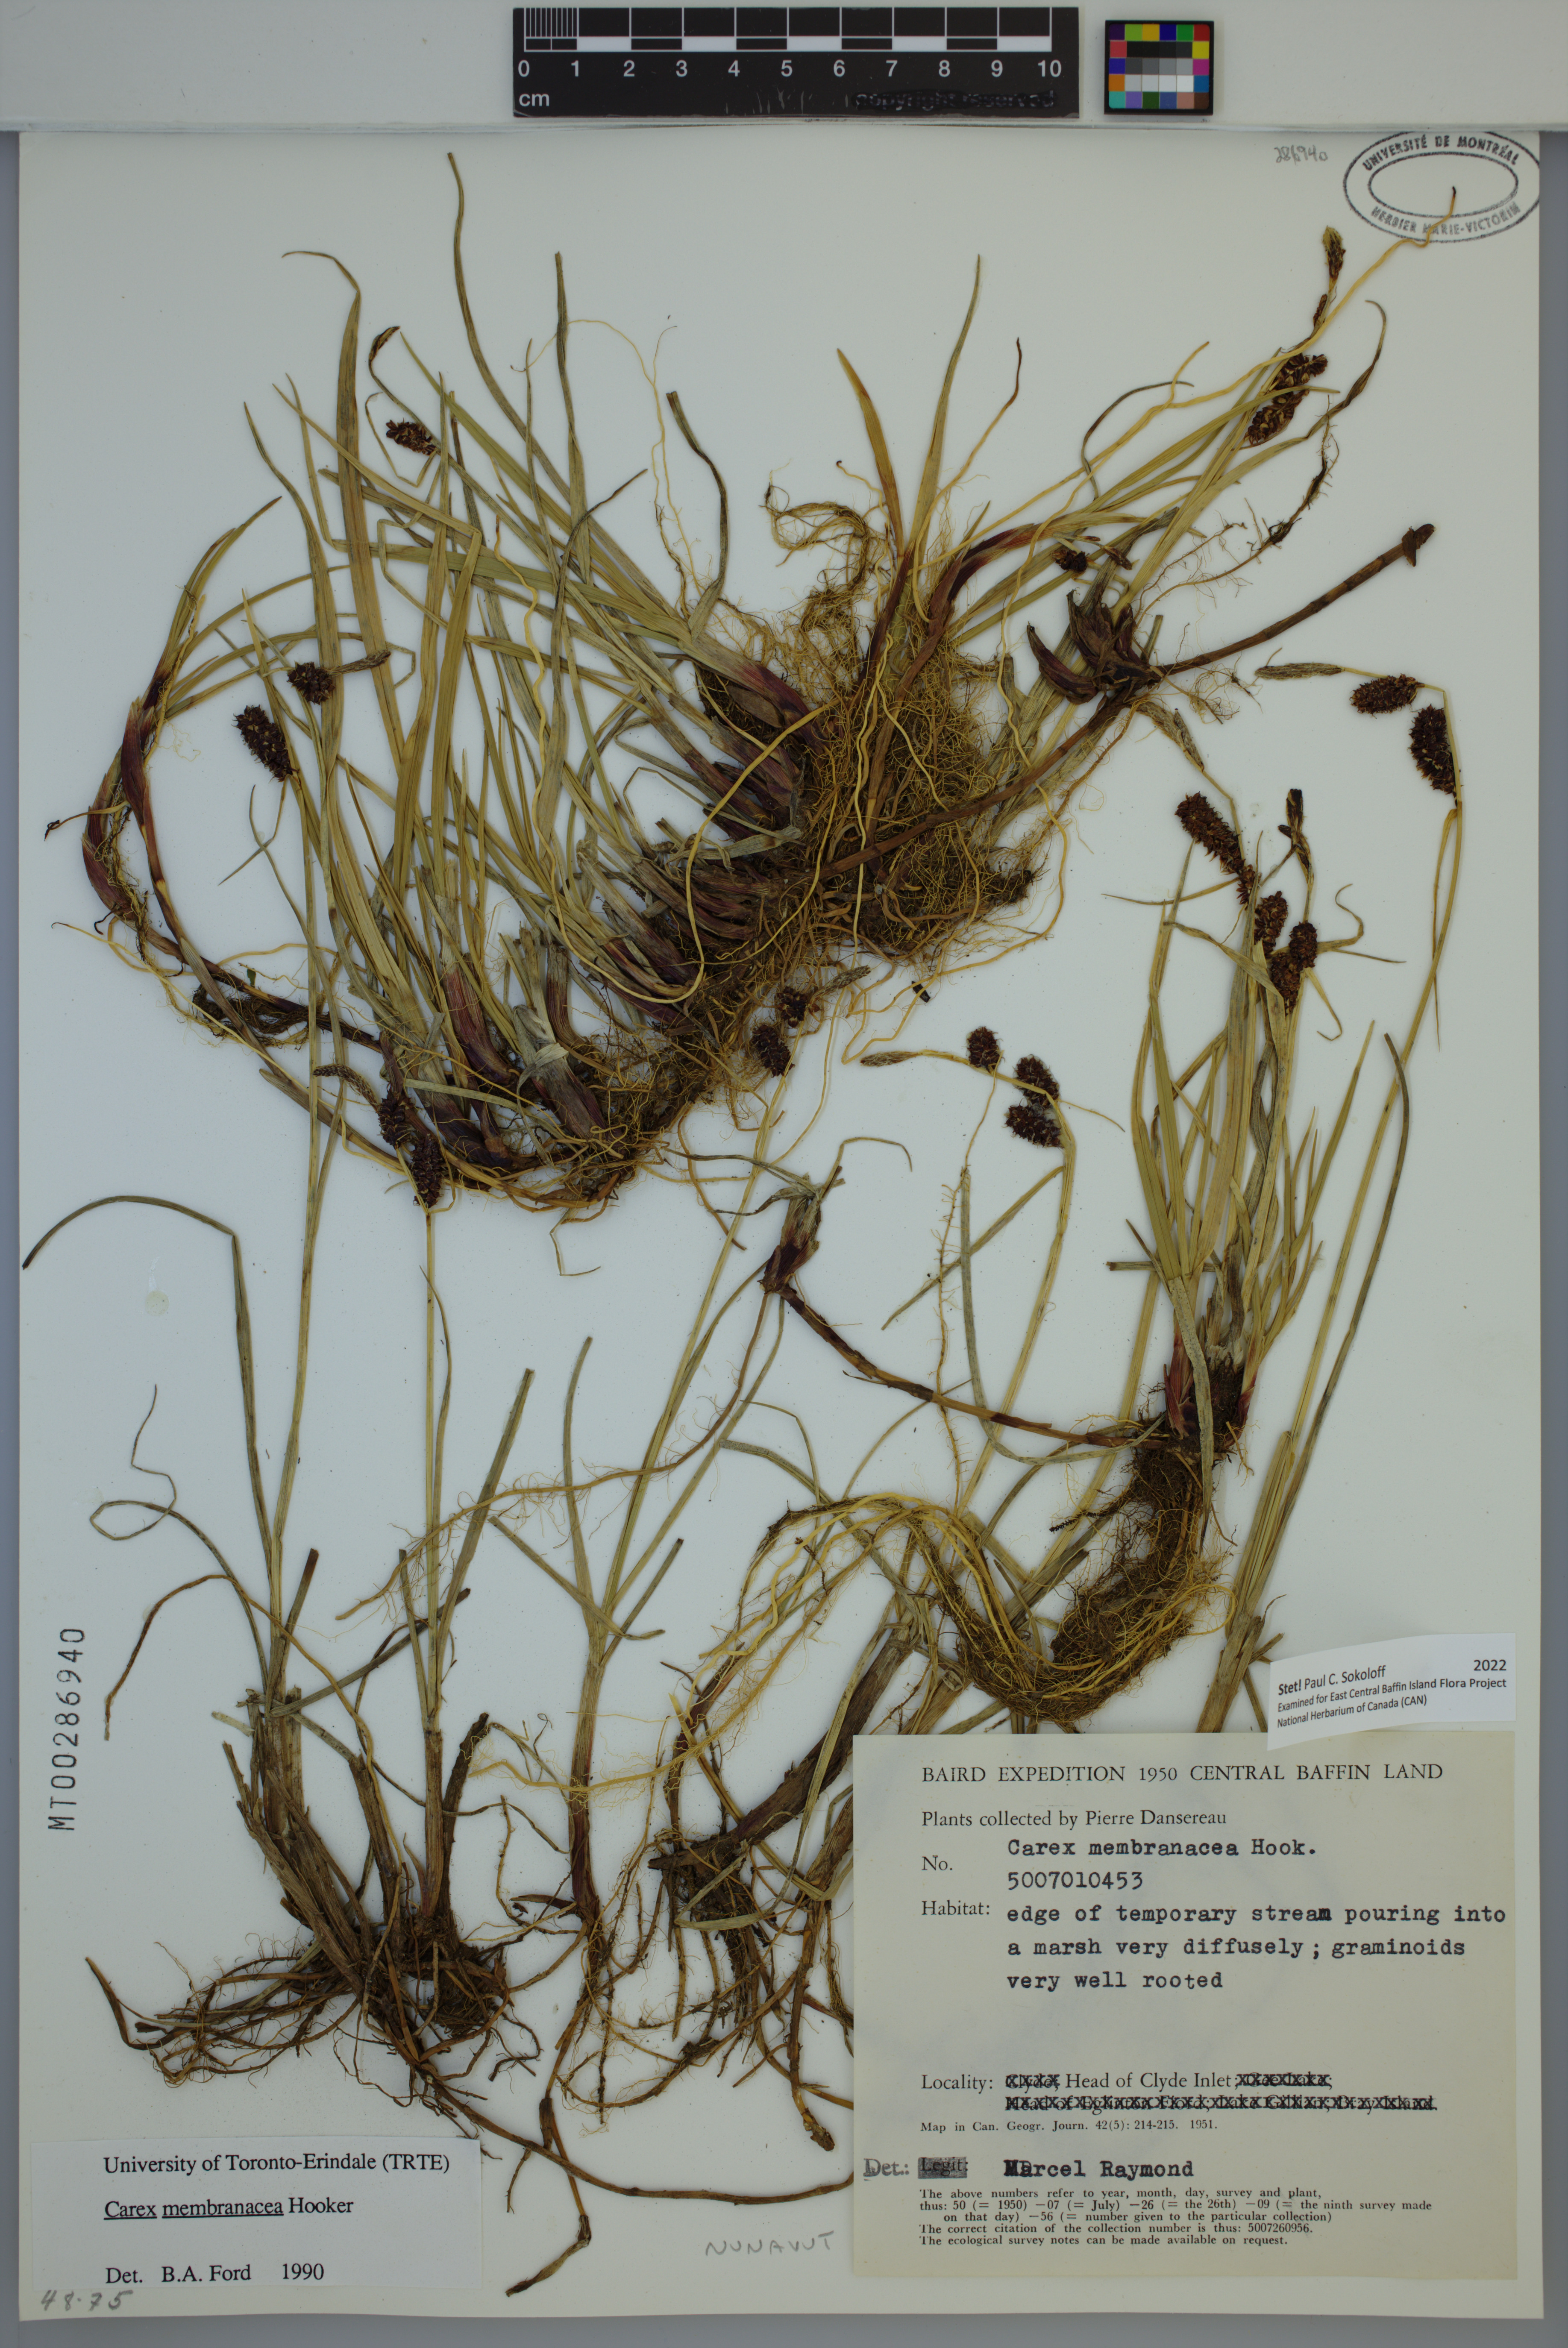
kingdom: Plantae
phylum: Tracheophyta
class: Liliopsida
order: Poales
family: Cyperaceae
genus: Carex
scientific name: Carex membranacea
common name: Fragile sedge
